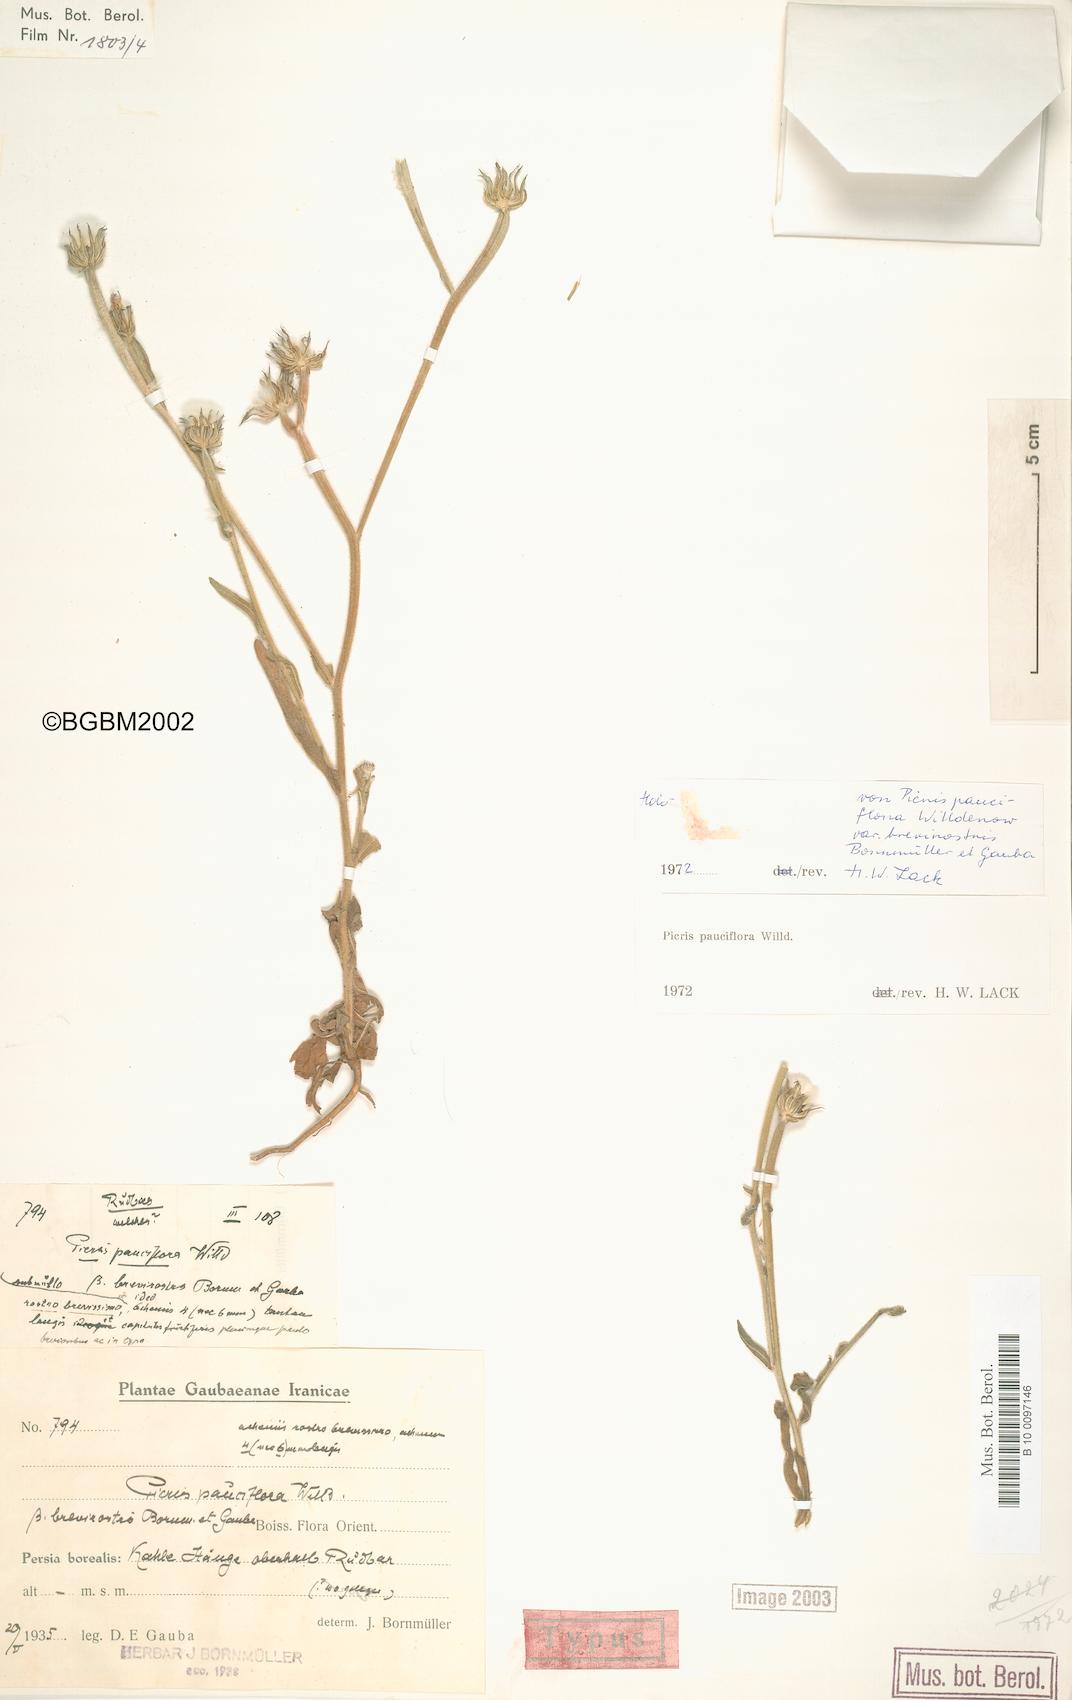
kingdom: Plantae
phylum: Tracheophyta
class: Magnoliopsida
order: Asterales
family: Asteraceae
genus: Picris
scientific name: Picris pauciflora
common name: Smallflower oxtongue
